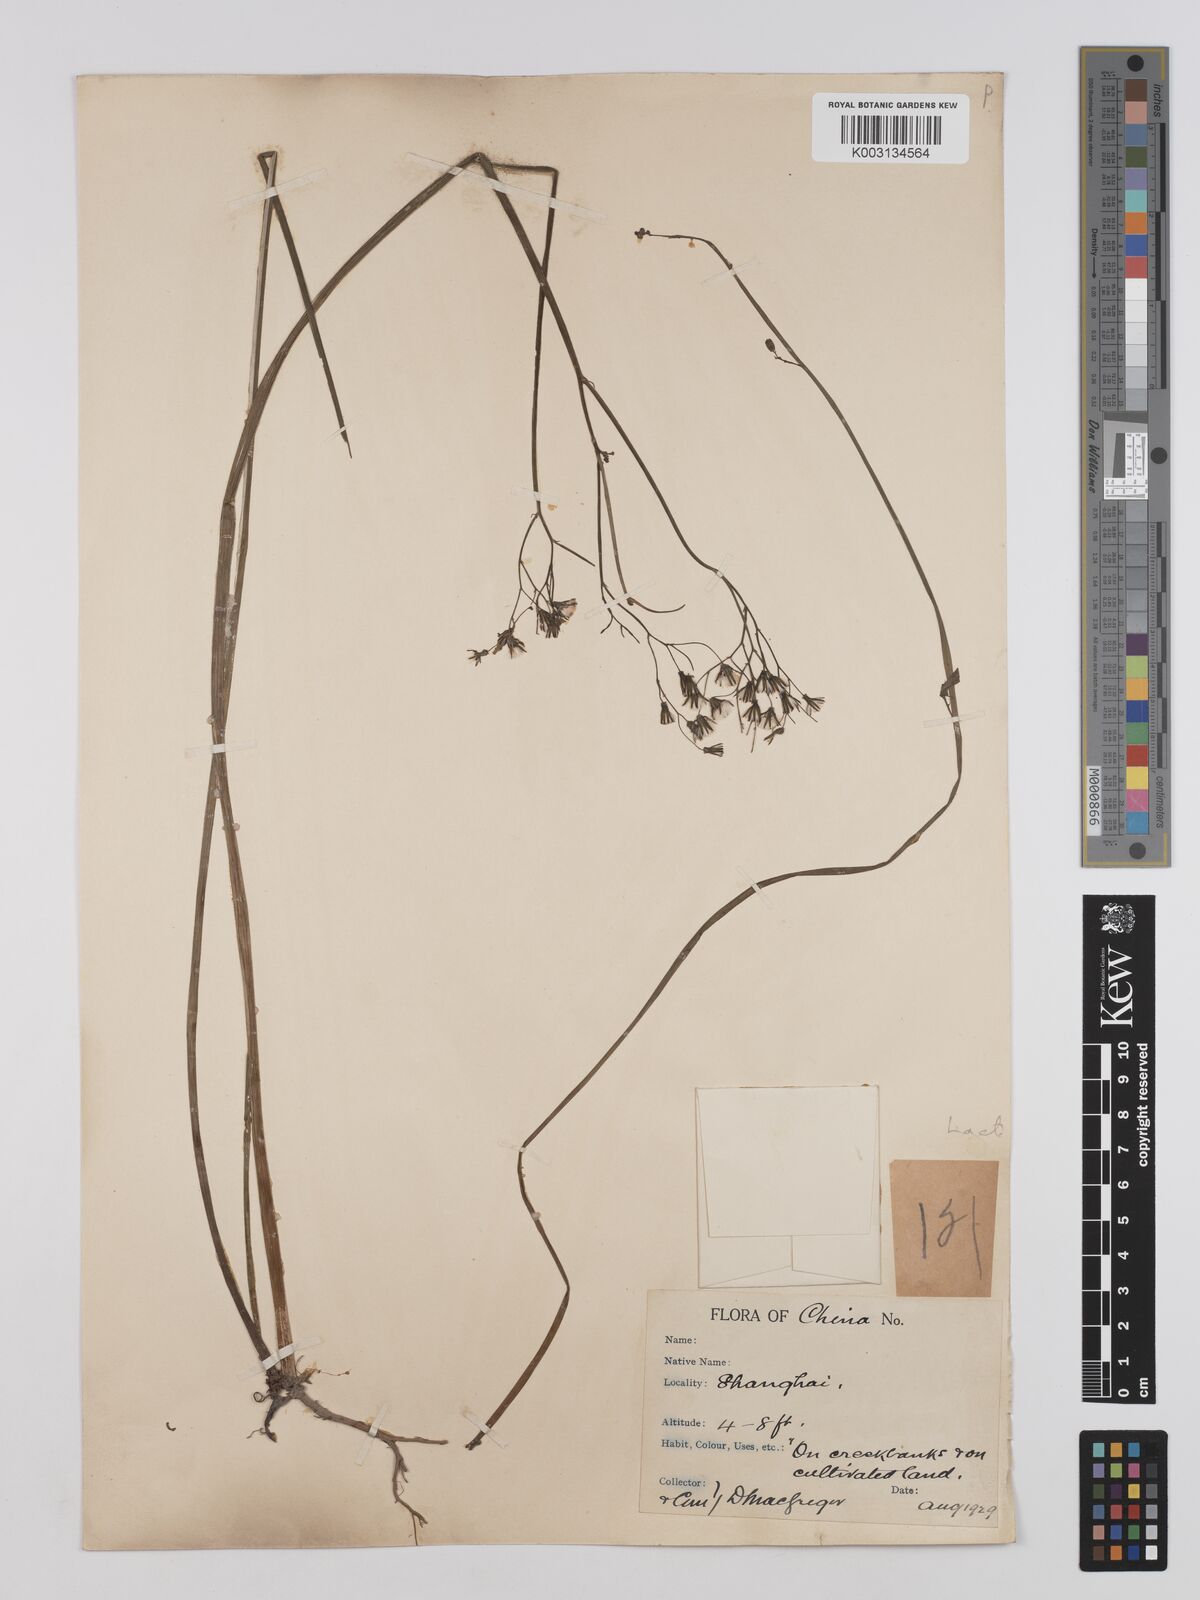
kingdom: Plantae
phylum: Tracheophyta
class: Magnoliopsida
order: Asterales
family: Asteraceae
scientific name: Asteraceae
